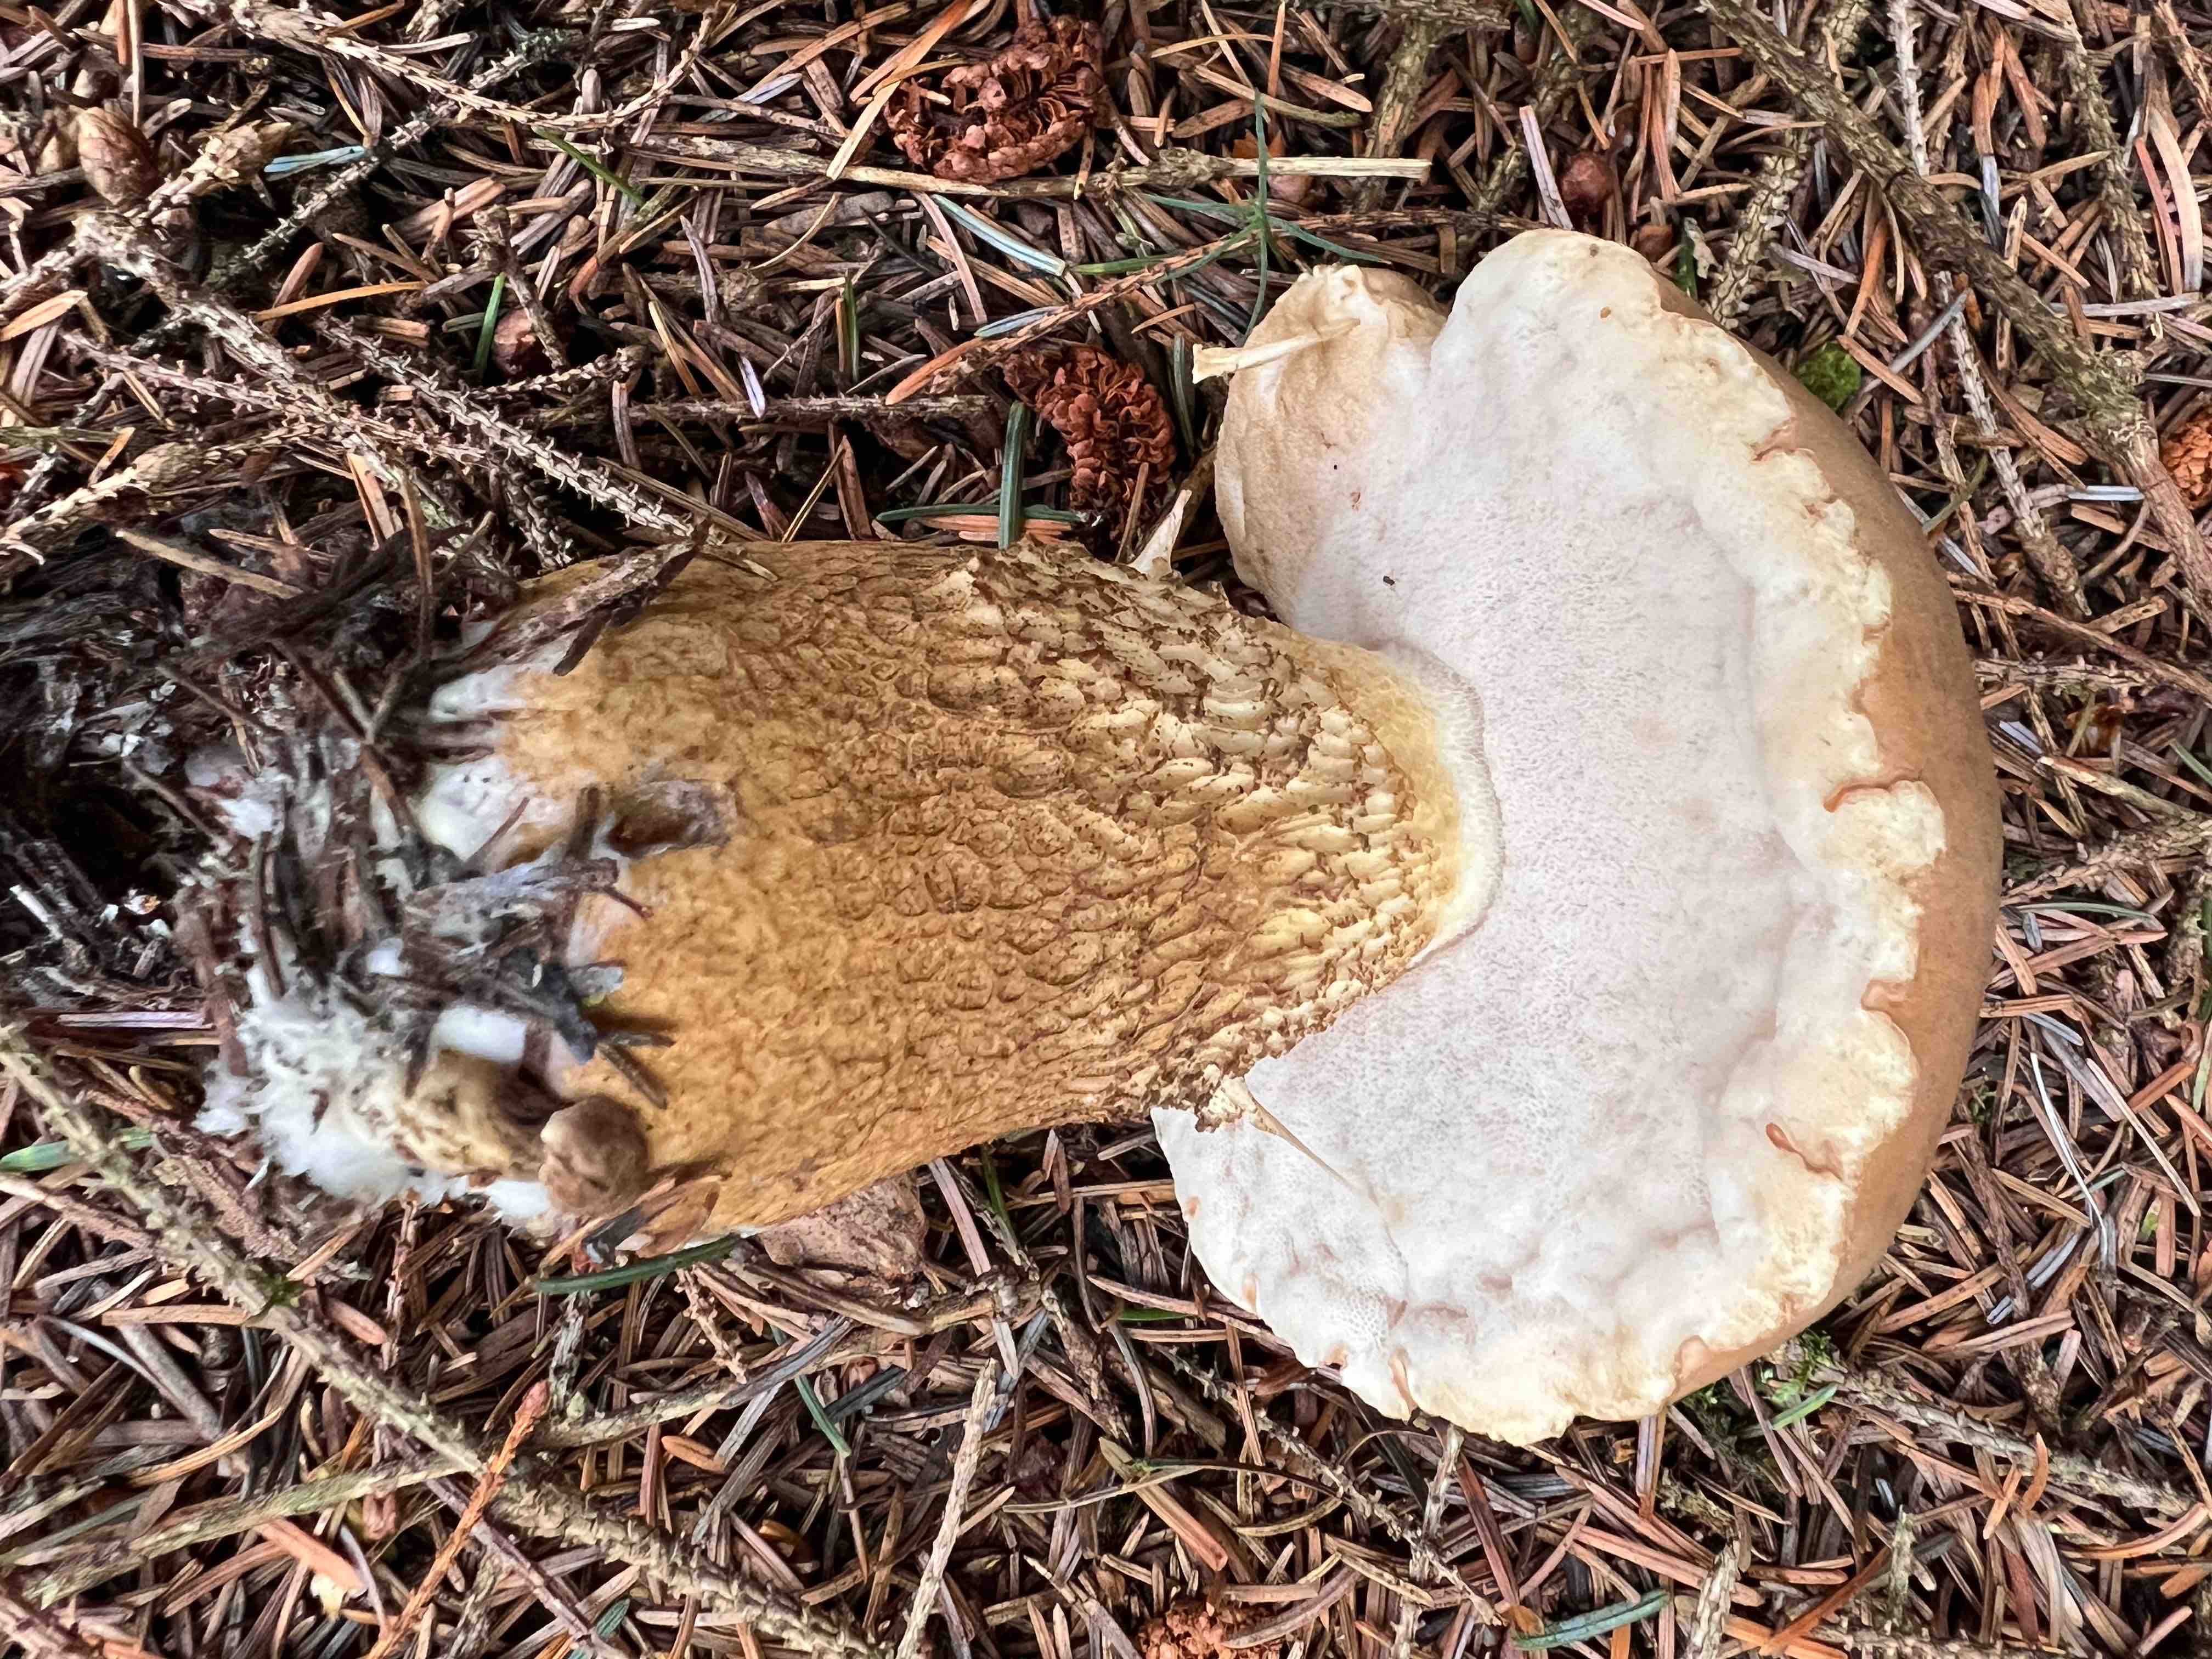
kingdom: Fungi
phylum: Basidiomycota
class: Agaricomycetes
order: Boletales
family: Boletaceae
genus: Tylopilus
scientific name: Tylopilus felleus
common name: galderørhat
